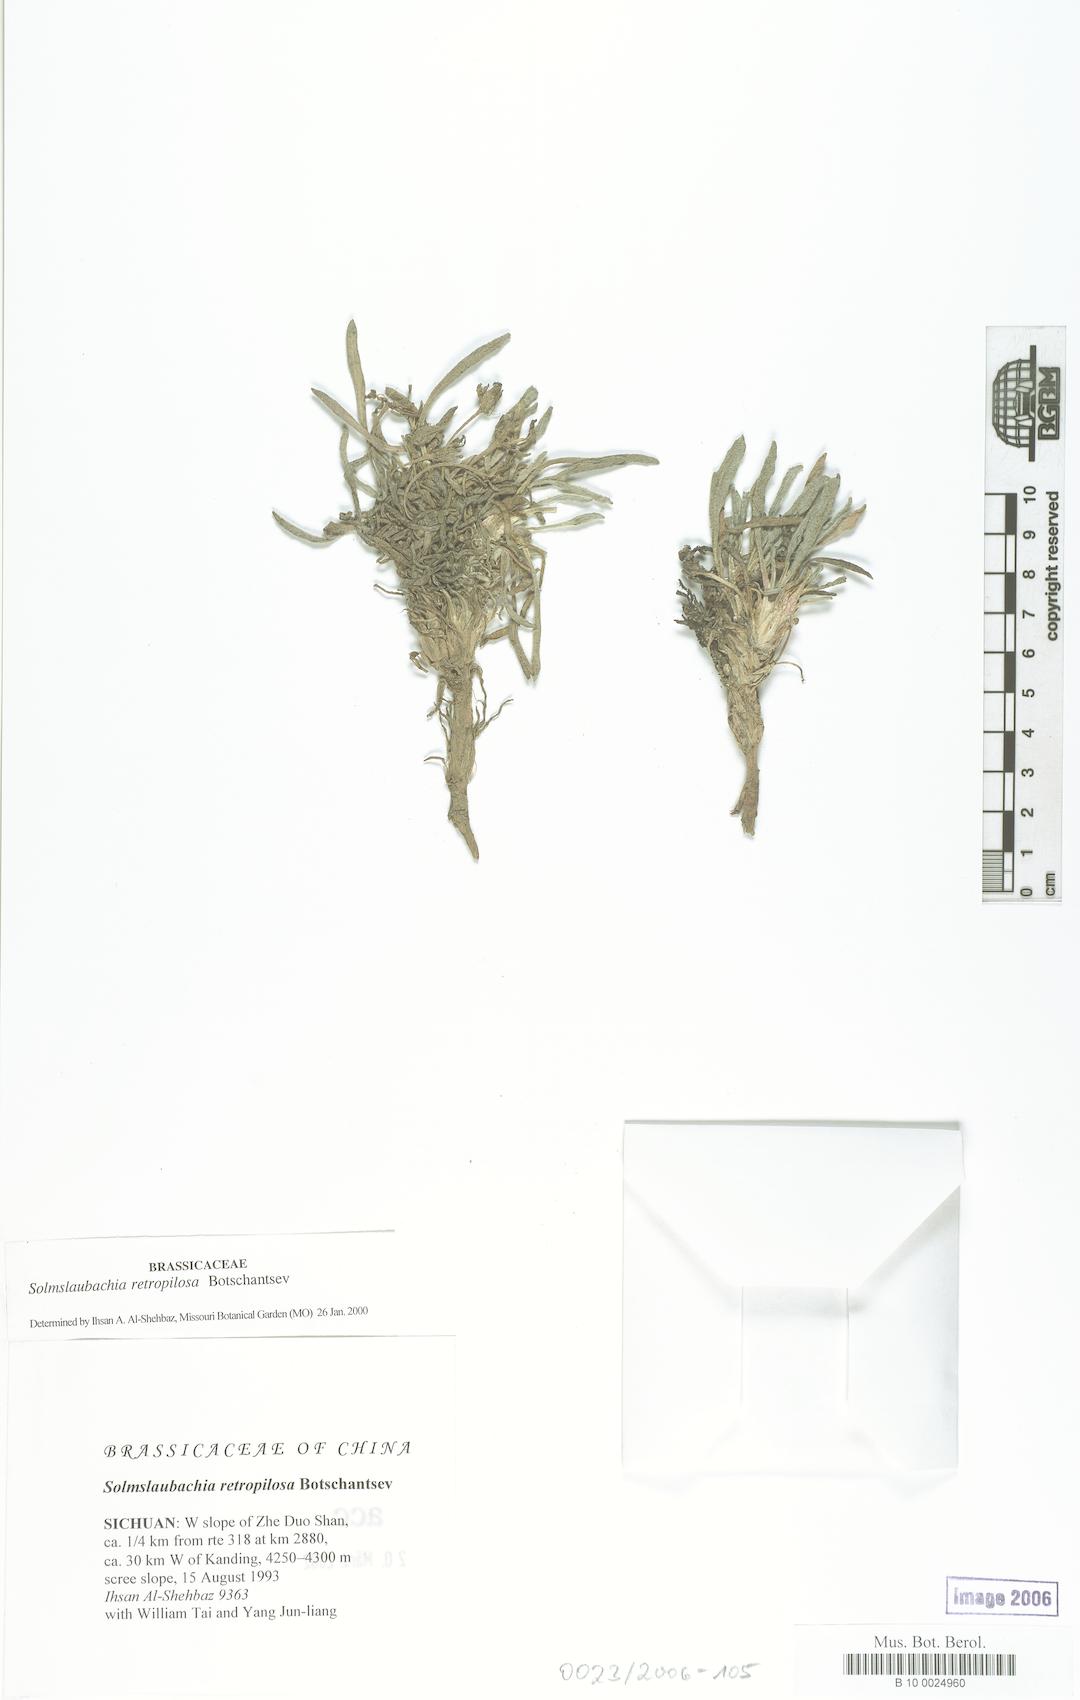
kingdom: Plantae
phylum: Tracheophyta
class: Magnoliopsida
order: Brassicales
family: Brassicaceae
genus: Solms-laubachia
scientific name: Solms-laubachia
